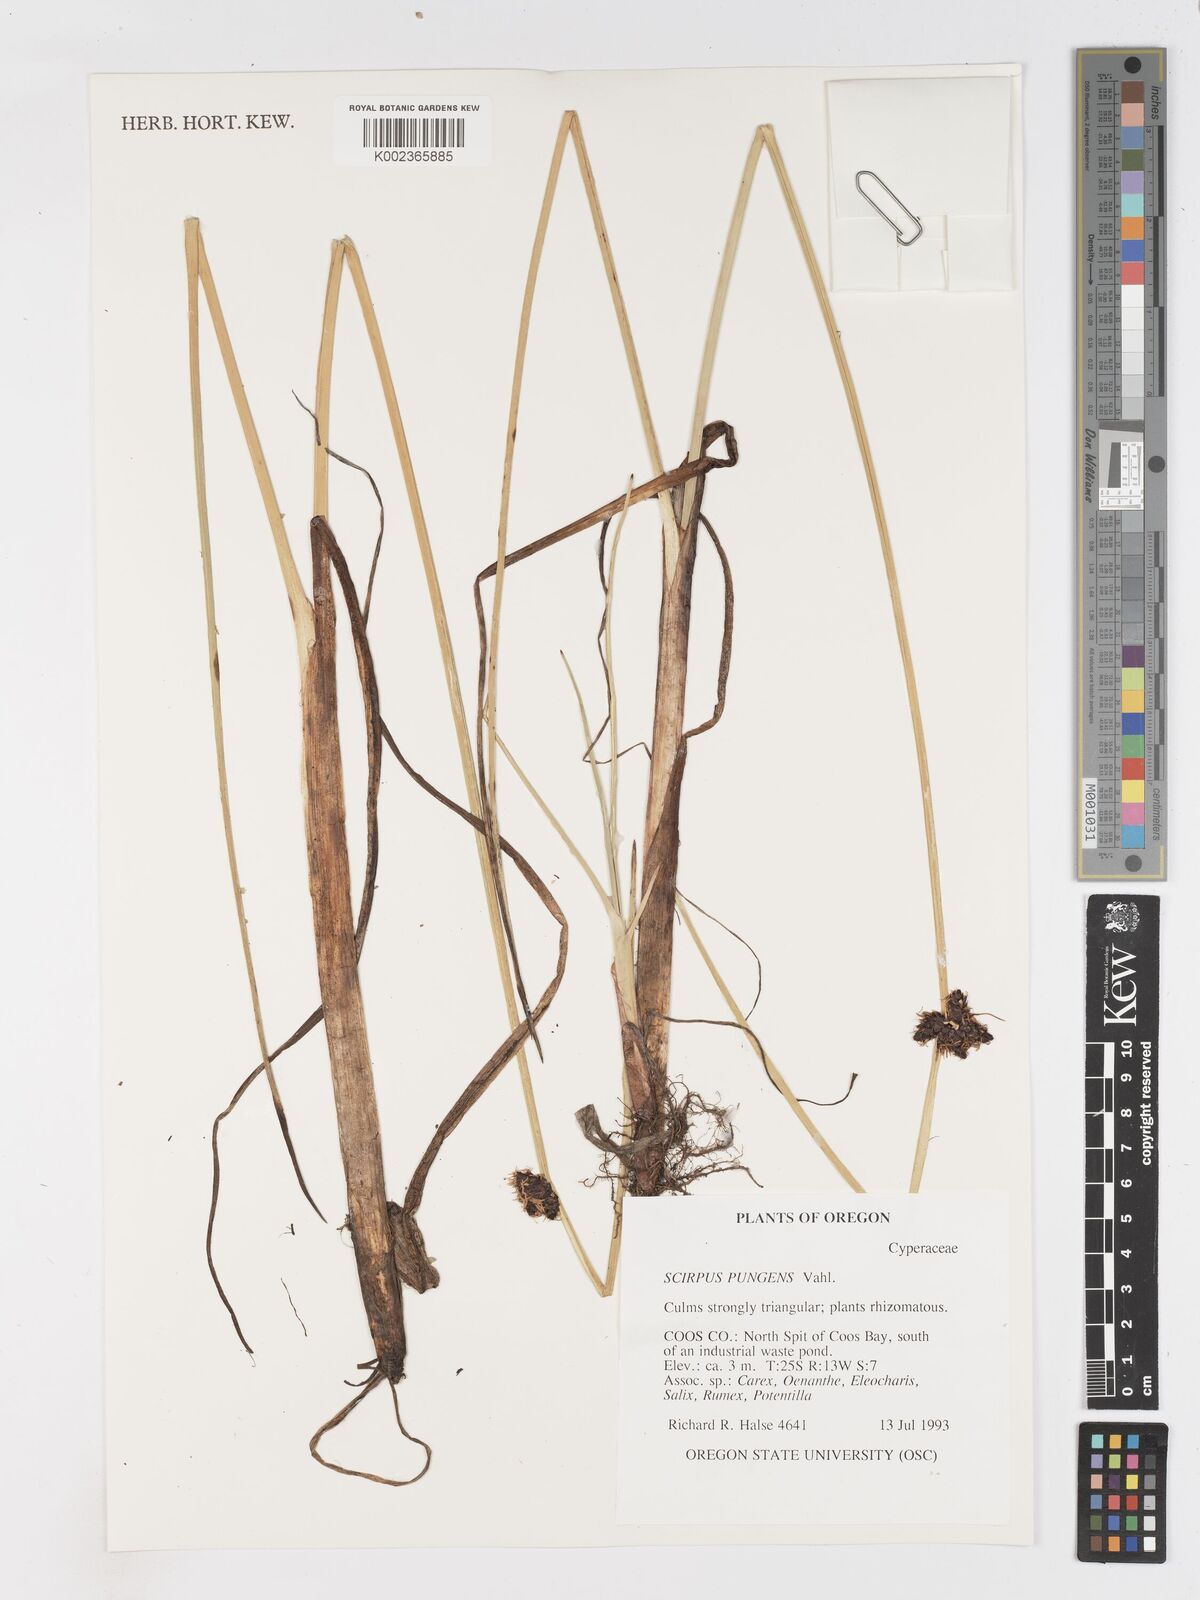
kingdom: Plantae
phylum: Tracheophyta
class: Liliopsida
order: Poales
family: Cyperaceae
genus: Schoenoplectus
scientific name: Schoenoplectus pungens
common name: Sharp club-rush
